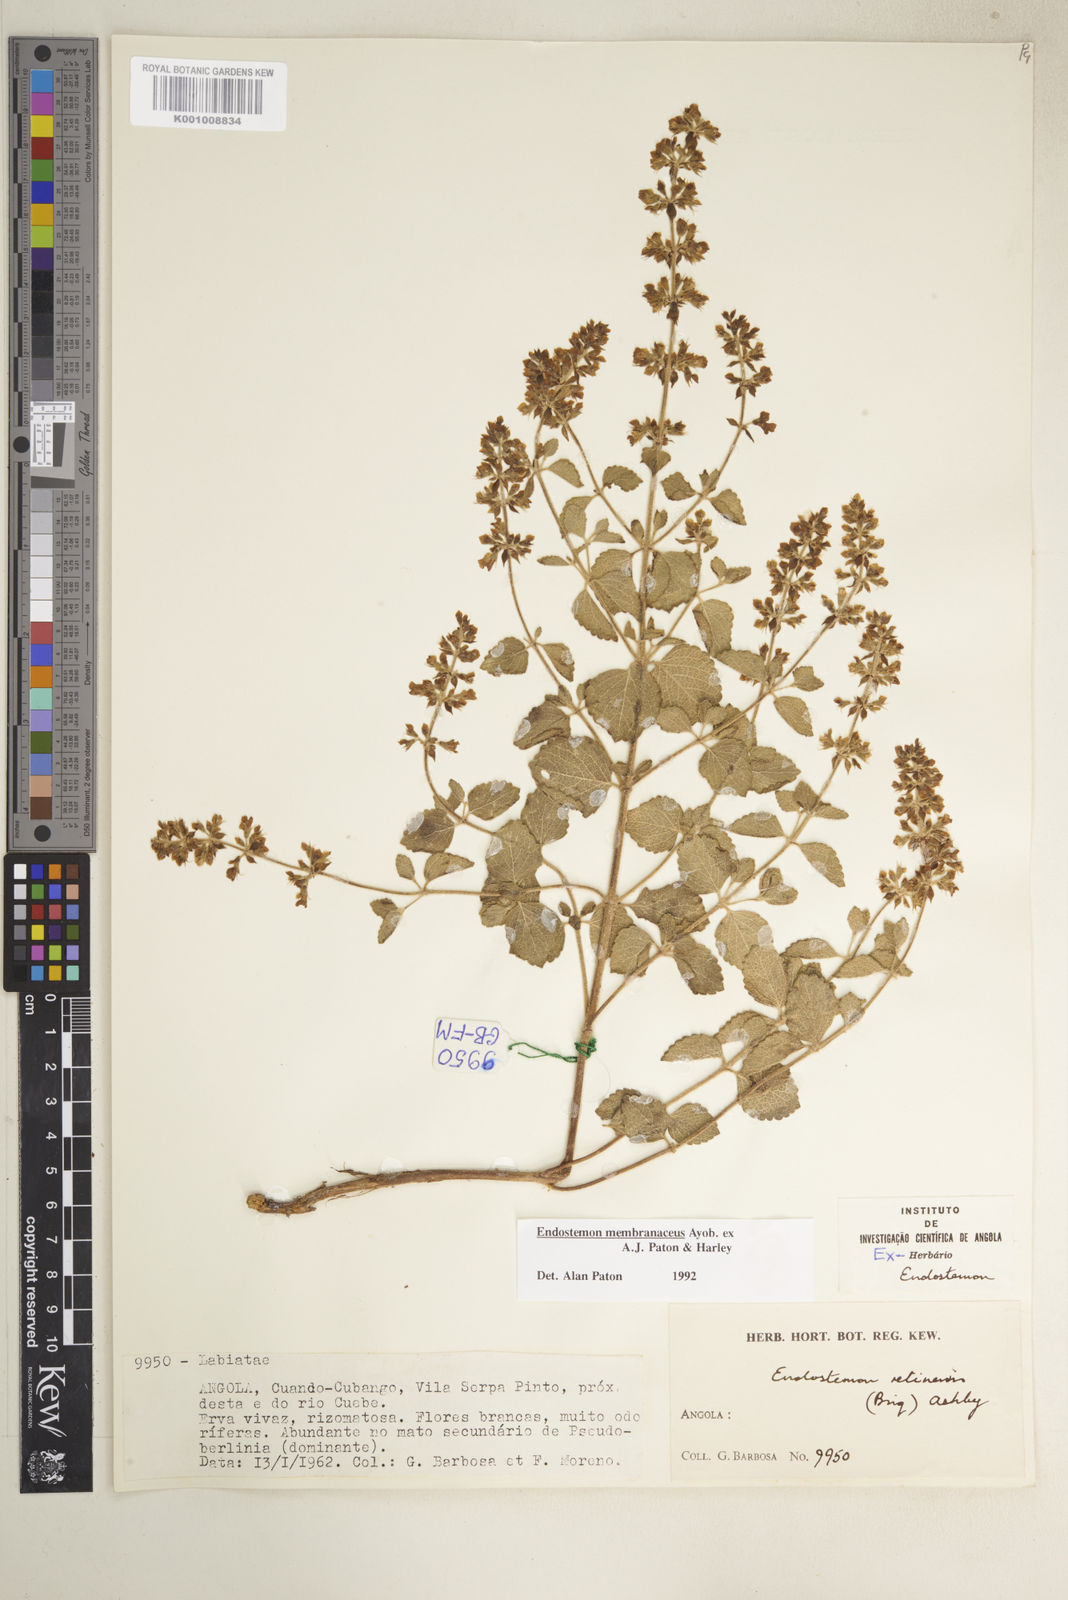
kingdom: Plantae
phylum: Tracheophyta
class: Magnoliopsida
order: Lamiales
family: Lamiaceae
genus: Endostemon
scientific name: Endostemon membranaceus
